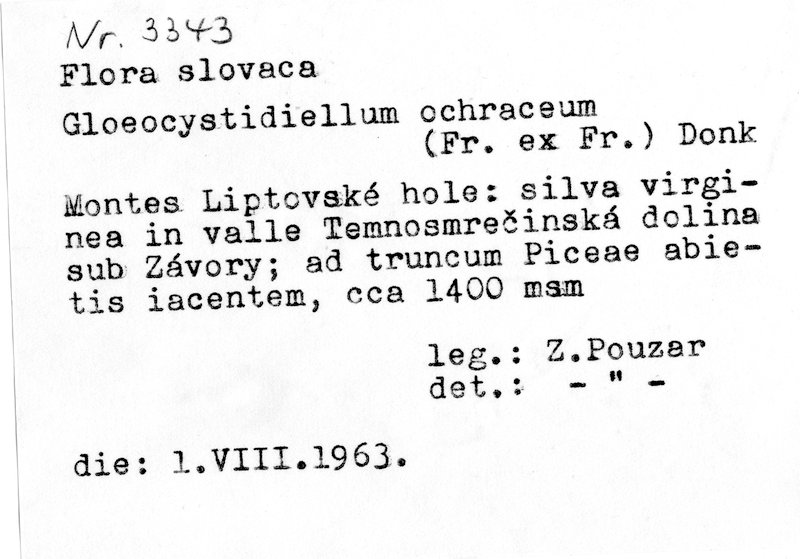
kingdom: Plantae
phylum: Tracheophyta
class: Pinopsida
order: Pinales
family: Pinaceae
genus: Picea
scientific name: Picea abies
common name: Norway spruce
